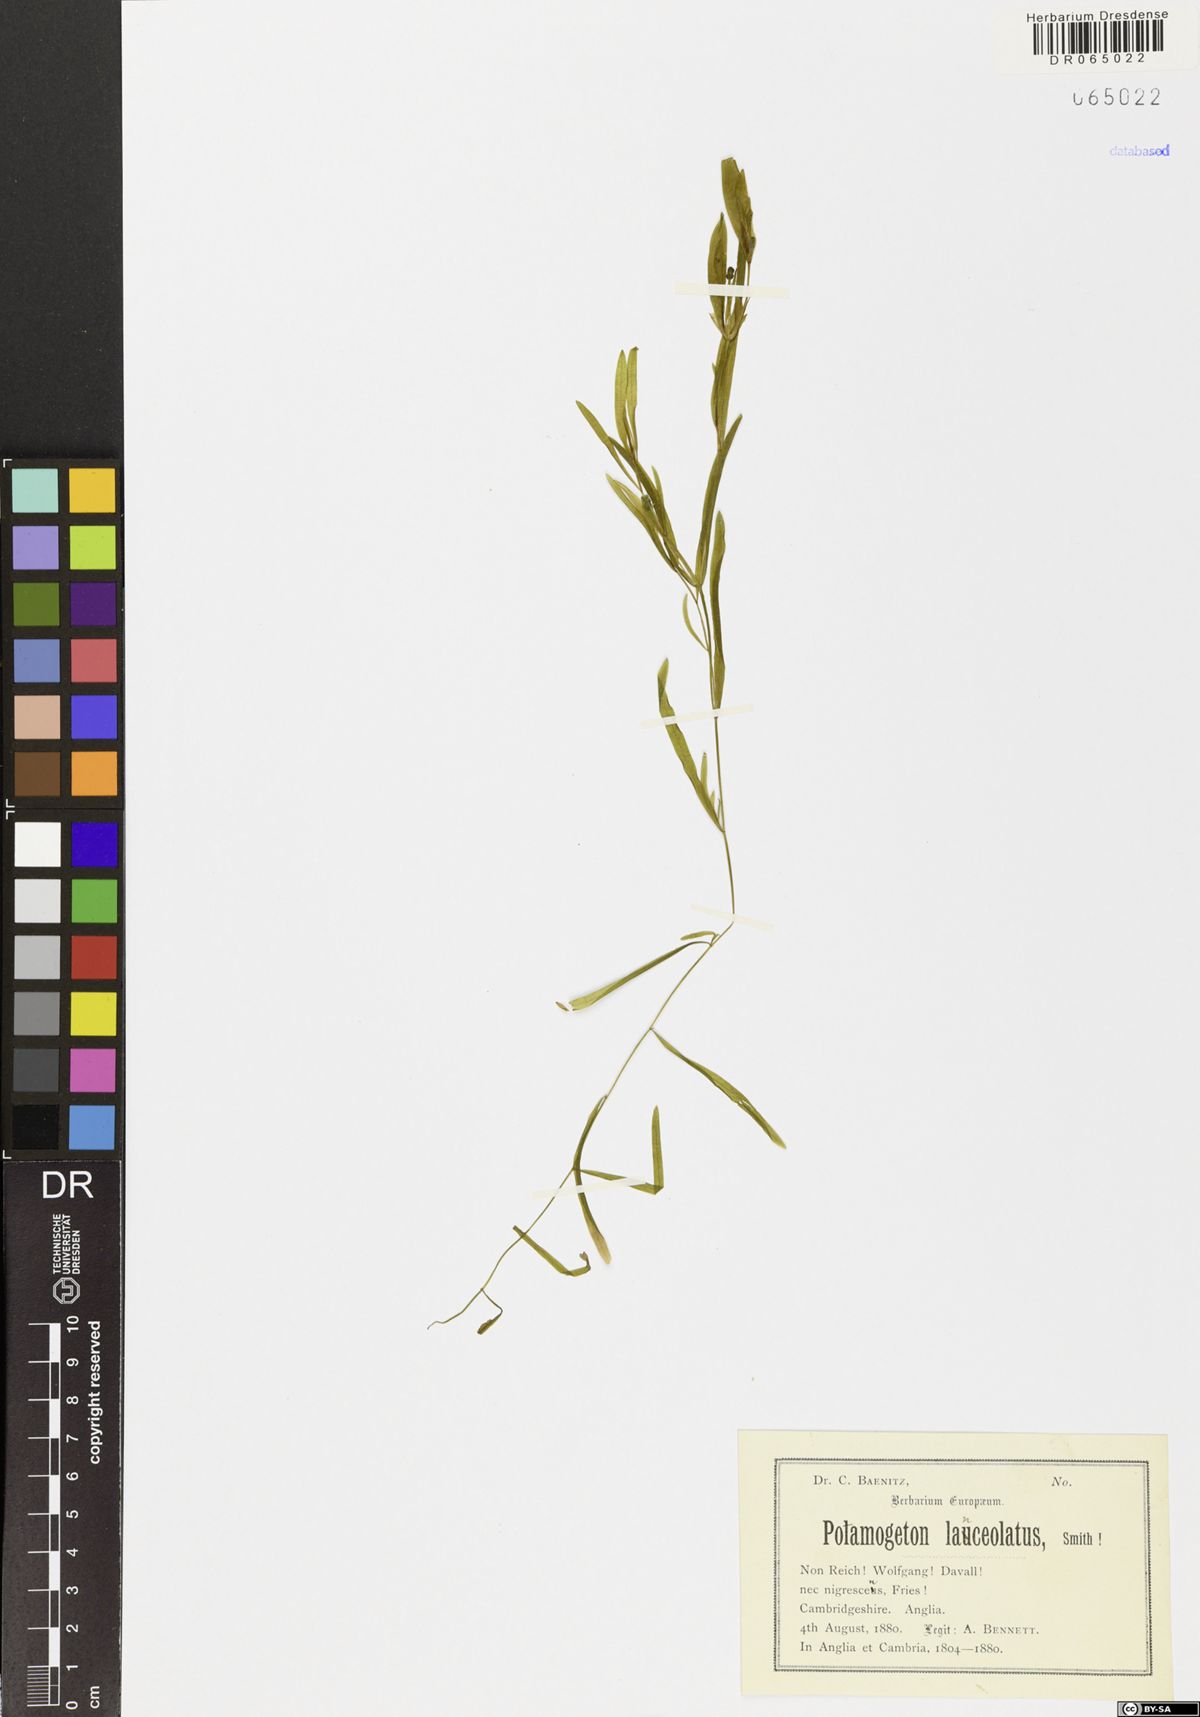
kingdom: Plantae
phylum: Tracheophyta
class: Liliopsida
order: Alismatales
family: Potamogetonaceae
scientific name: Potamogetonaceae
